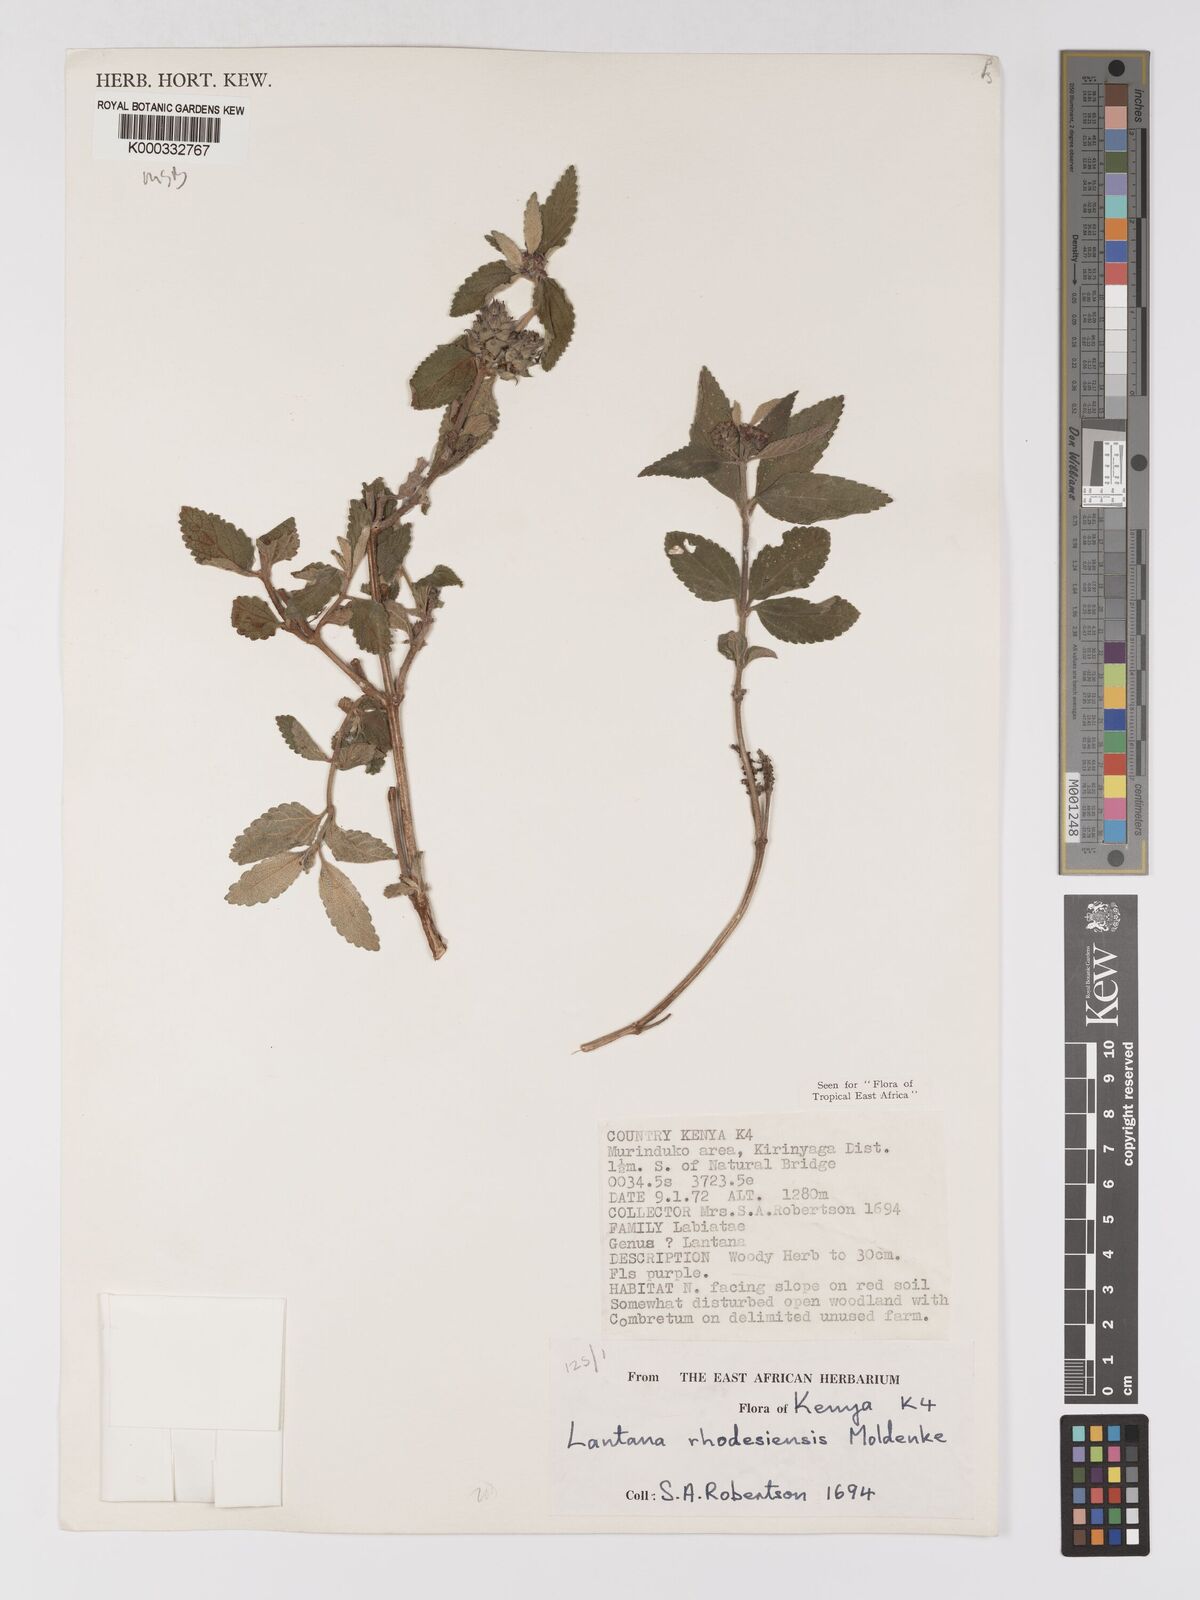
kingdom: Plantae
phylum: Tracheophyta
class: Magnoliopsida
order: Lamiales
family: Verbenaceae
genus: Lantana
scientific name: Lantana ukambensis
